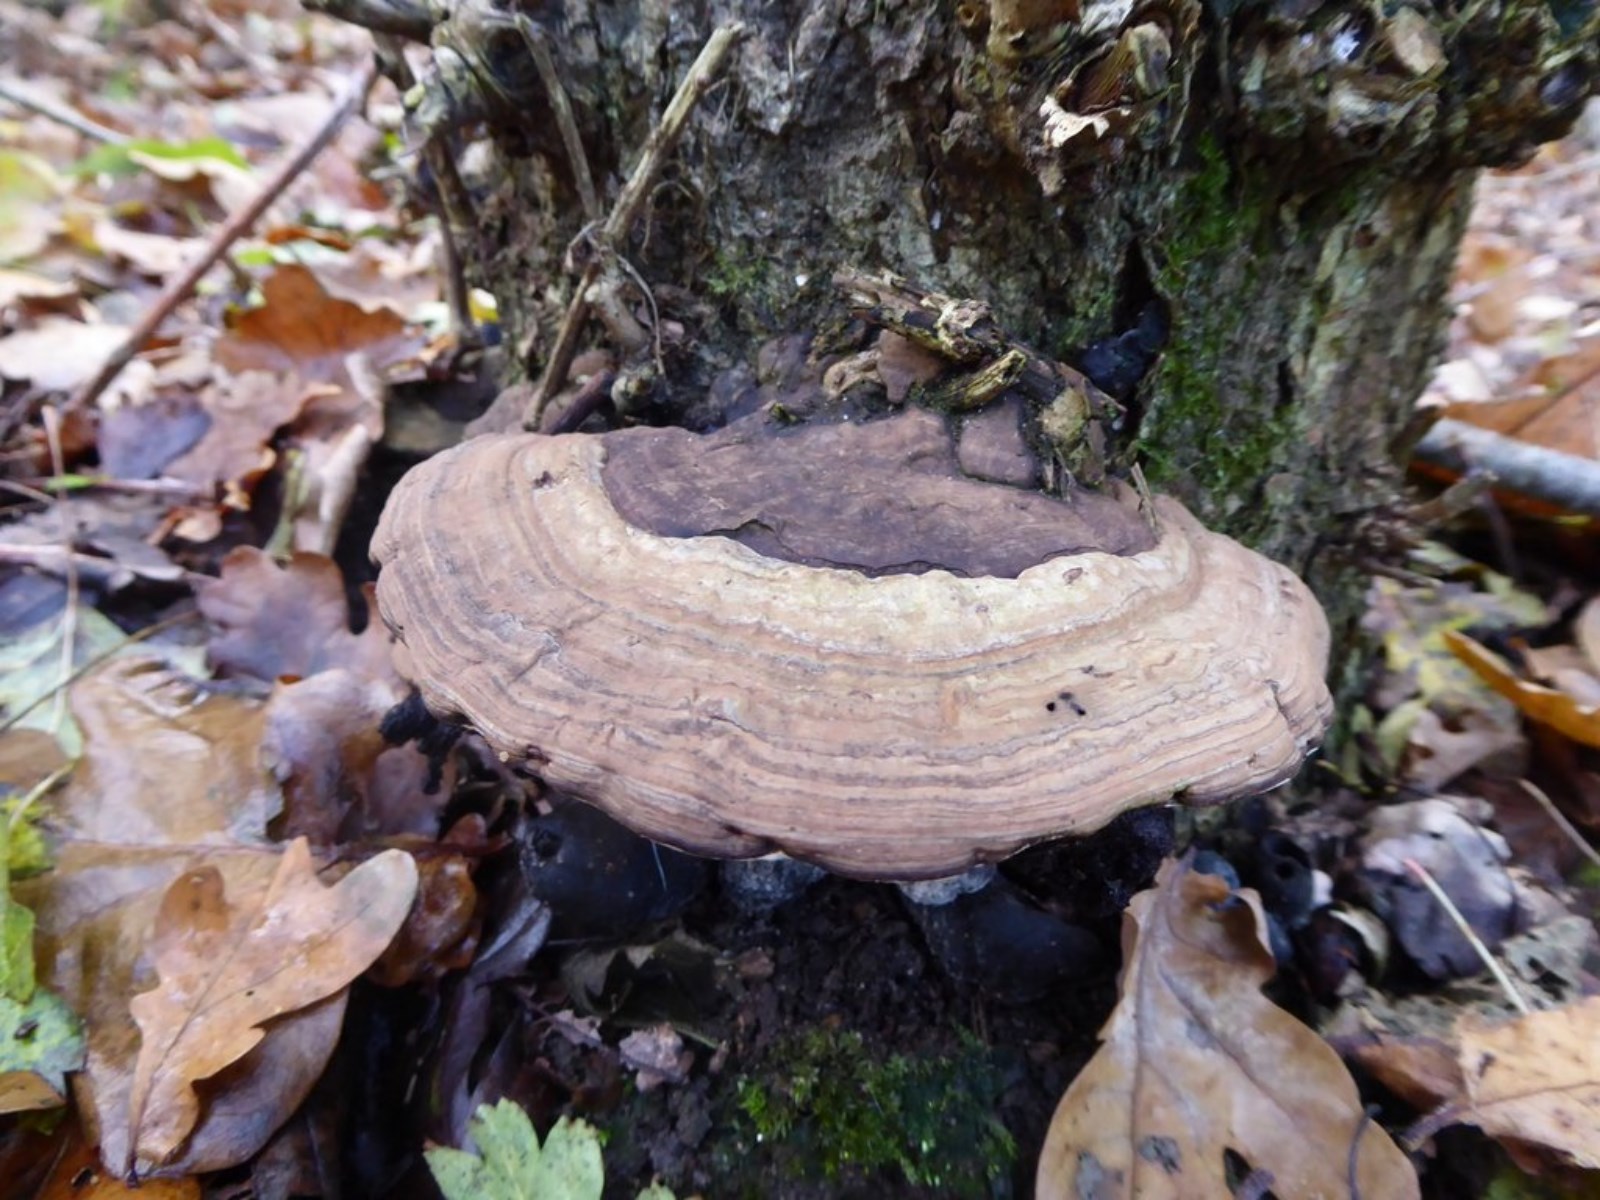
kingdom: Fungi
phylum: Basidiomycota
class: Agaricomycetes
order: Polyporales
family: Polyporaceae
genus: Ganoderma
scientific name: Ganoderma applanatum
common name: flad lakporesvamp
